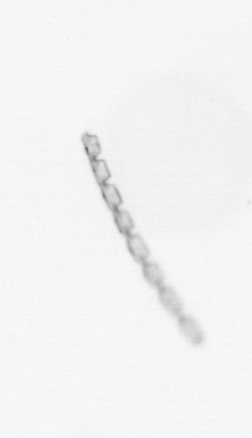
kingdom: Chromista
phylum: Ochrophyta
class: Bacillariophyceae
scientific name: Bacillariophyceae
